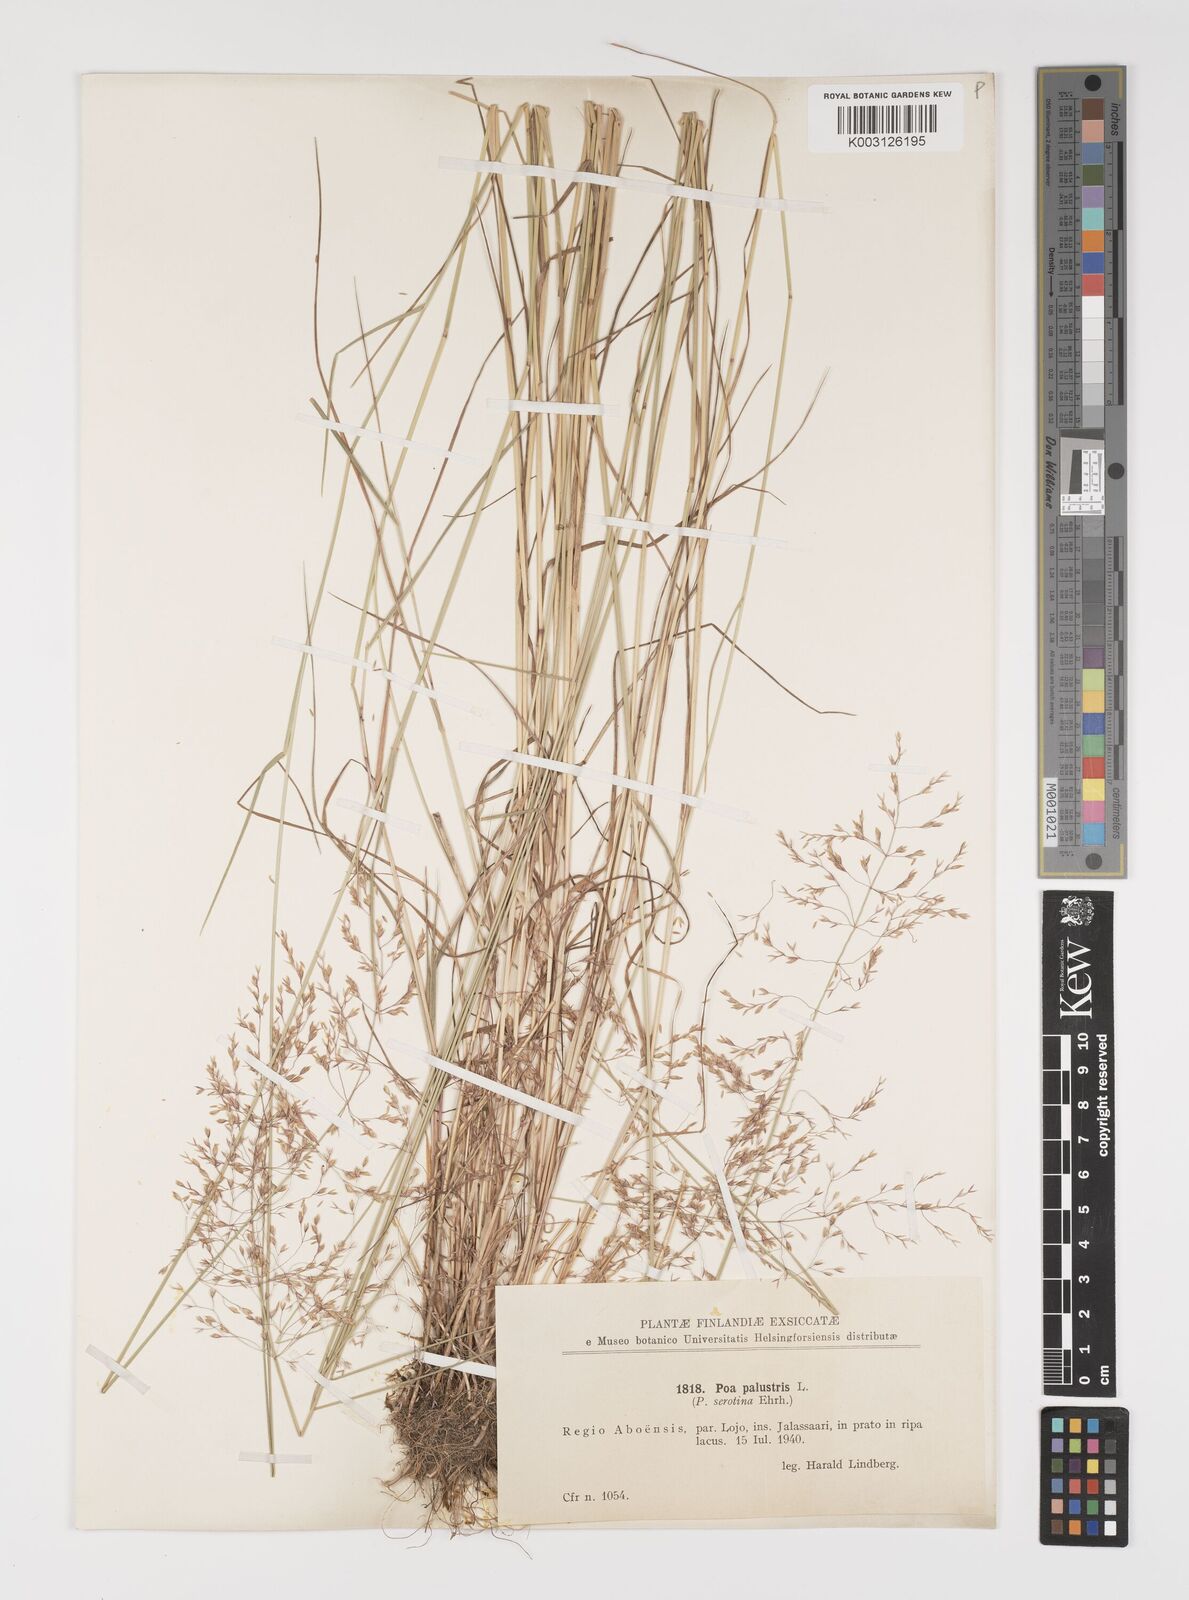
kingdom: Plantae
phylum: Tracheophyta
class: Liliopsida
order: Poales
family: Poaceae
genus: Poa
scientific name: Poa palustris
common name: Swamp meadow-grass
